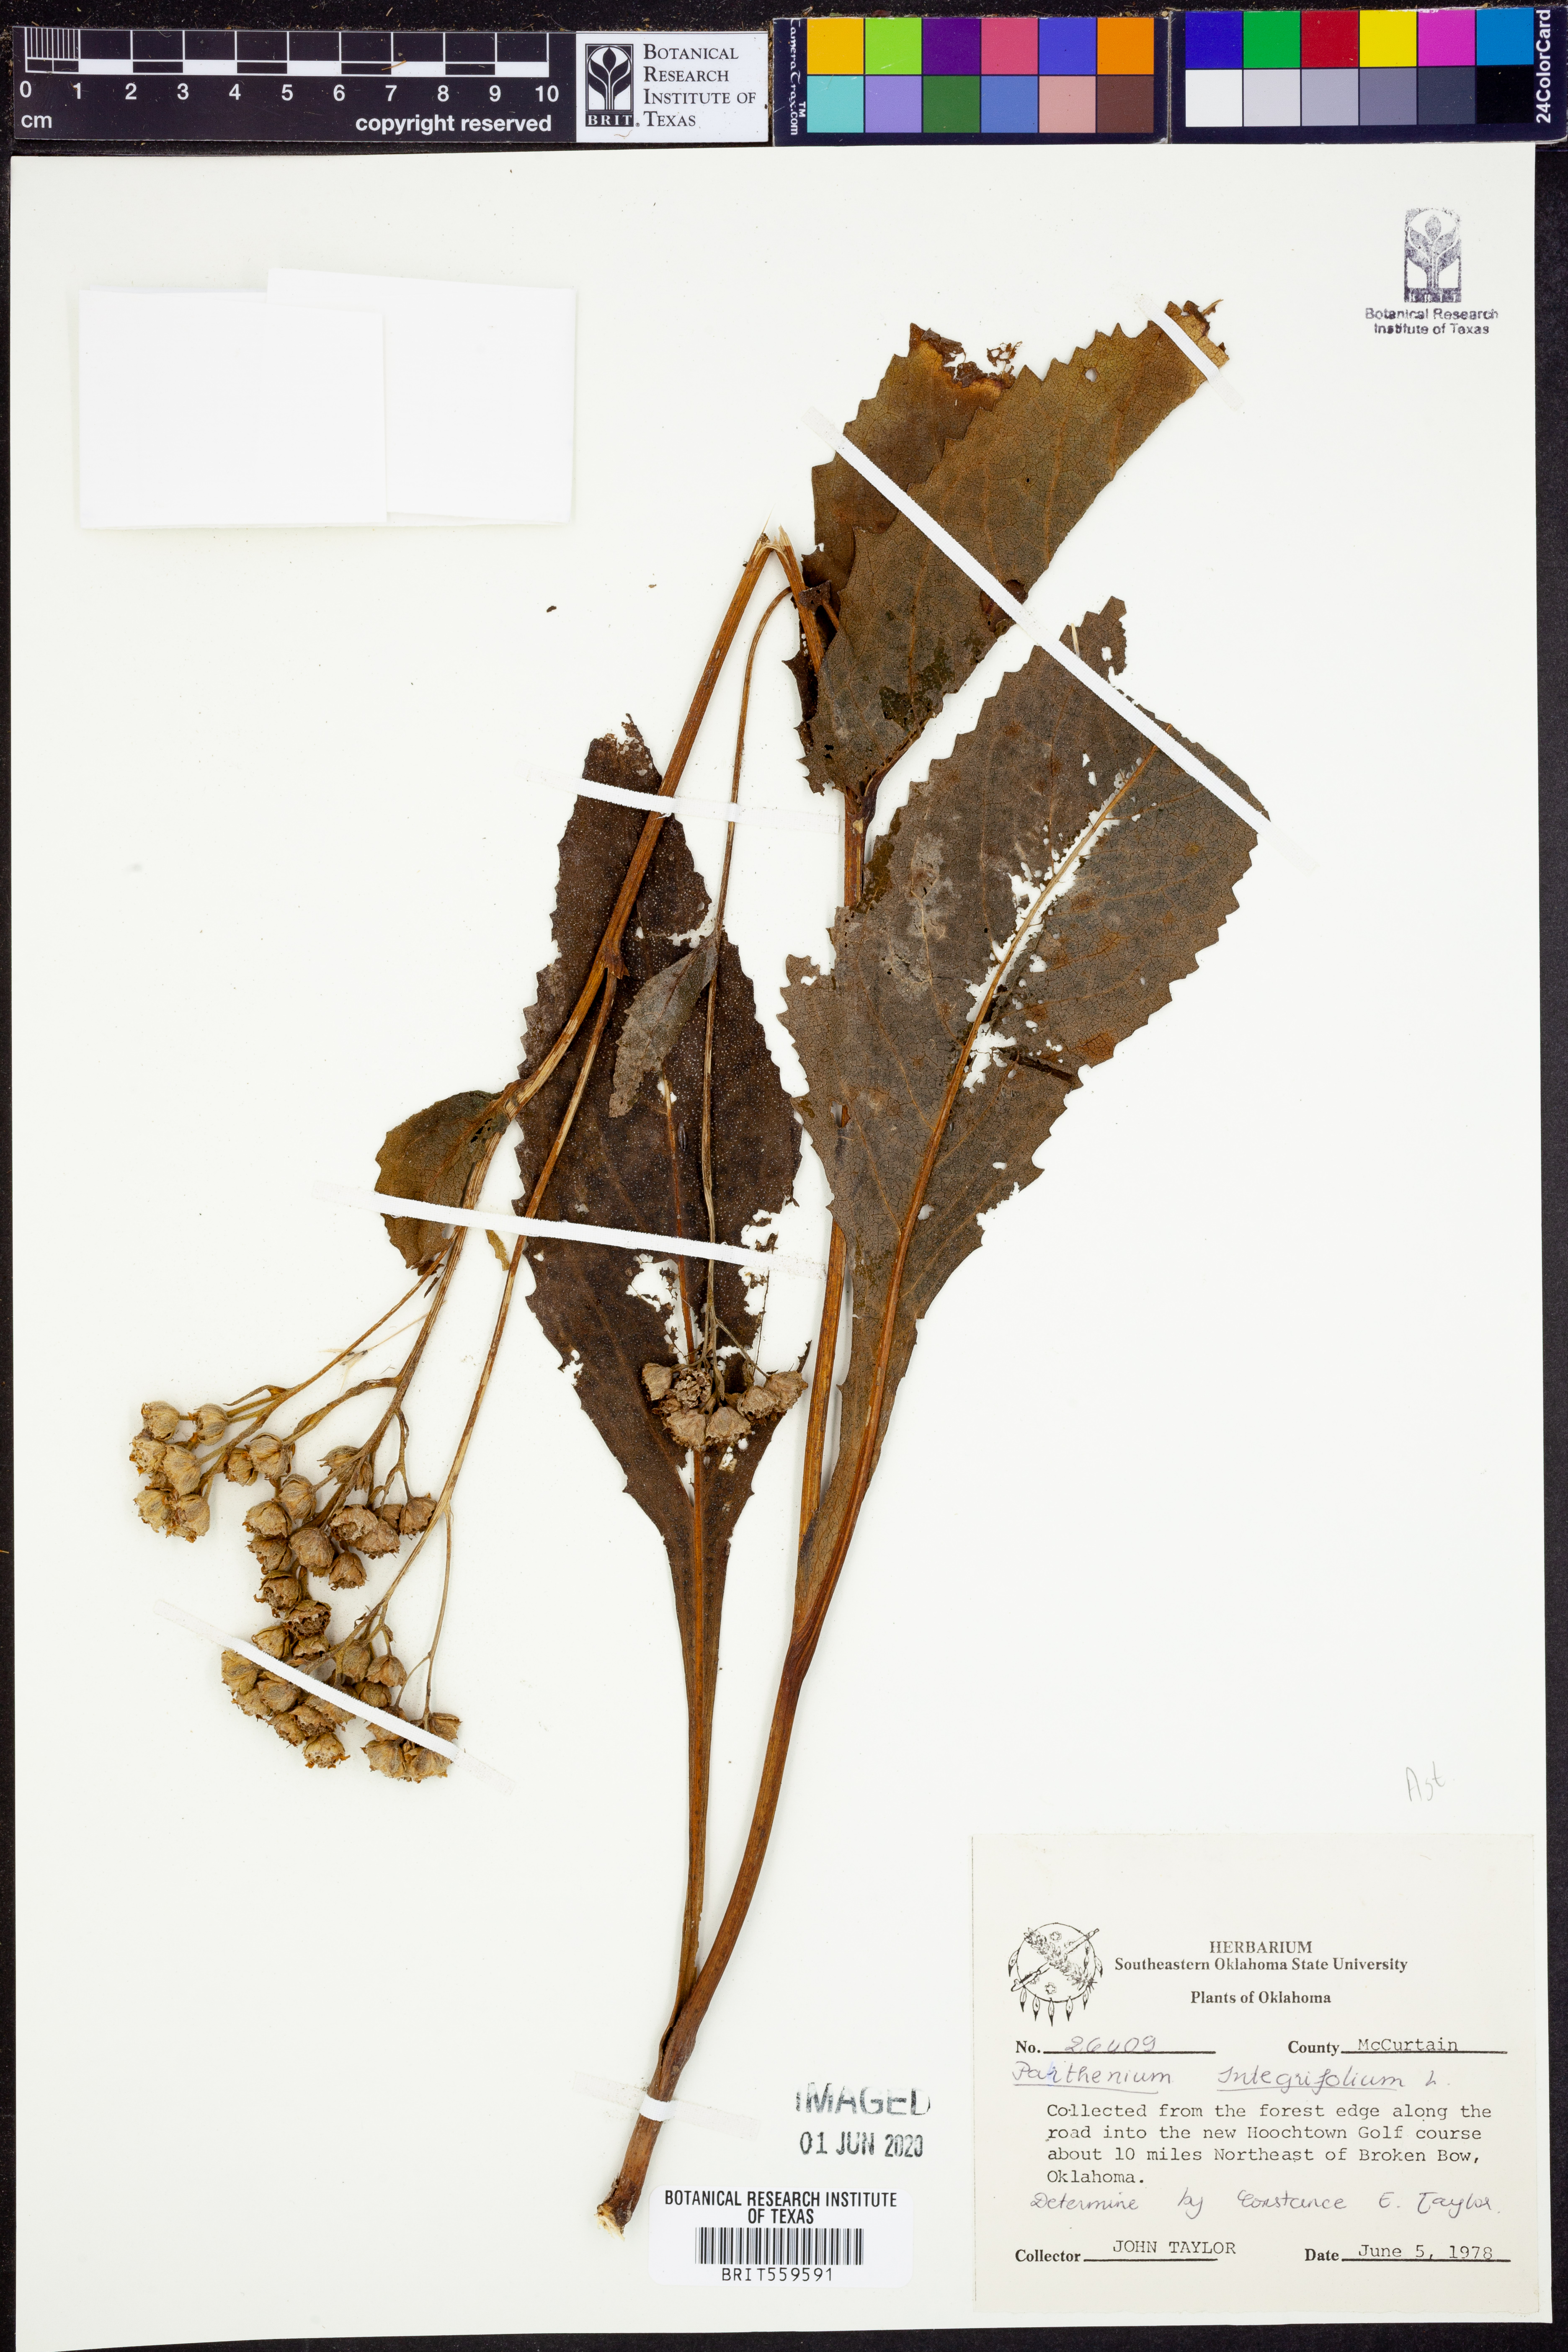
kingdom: Plantae
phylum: Tracheophyta
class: Magnoliopsida
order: Asterales
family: Asteraceae
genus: Parthenium
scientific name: Parthenium integrifolium
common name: American feverfew
